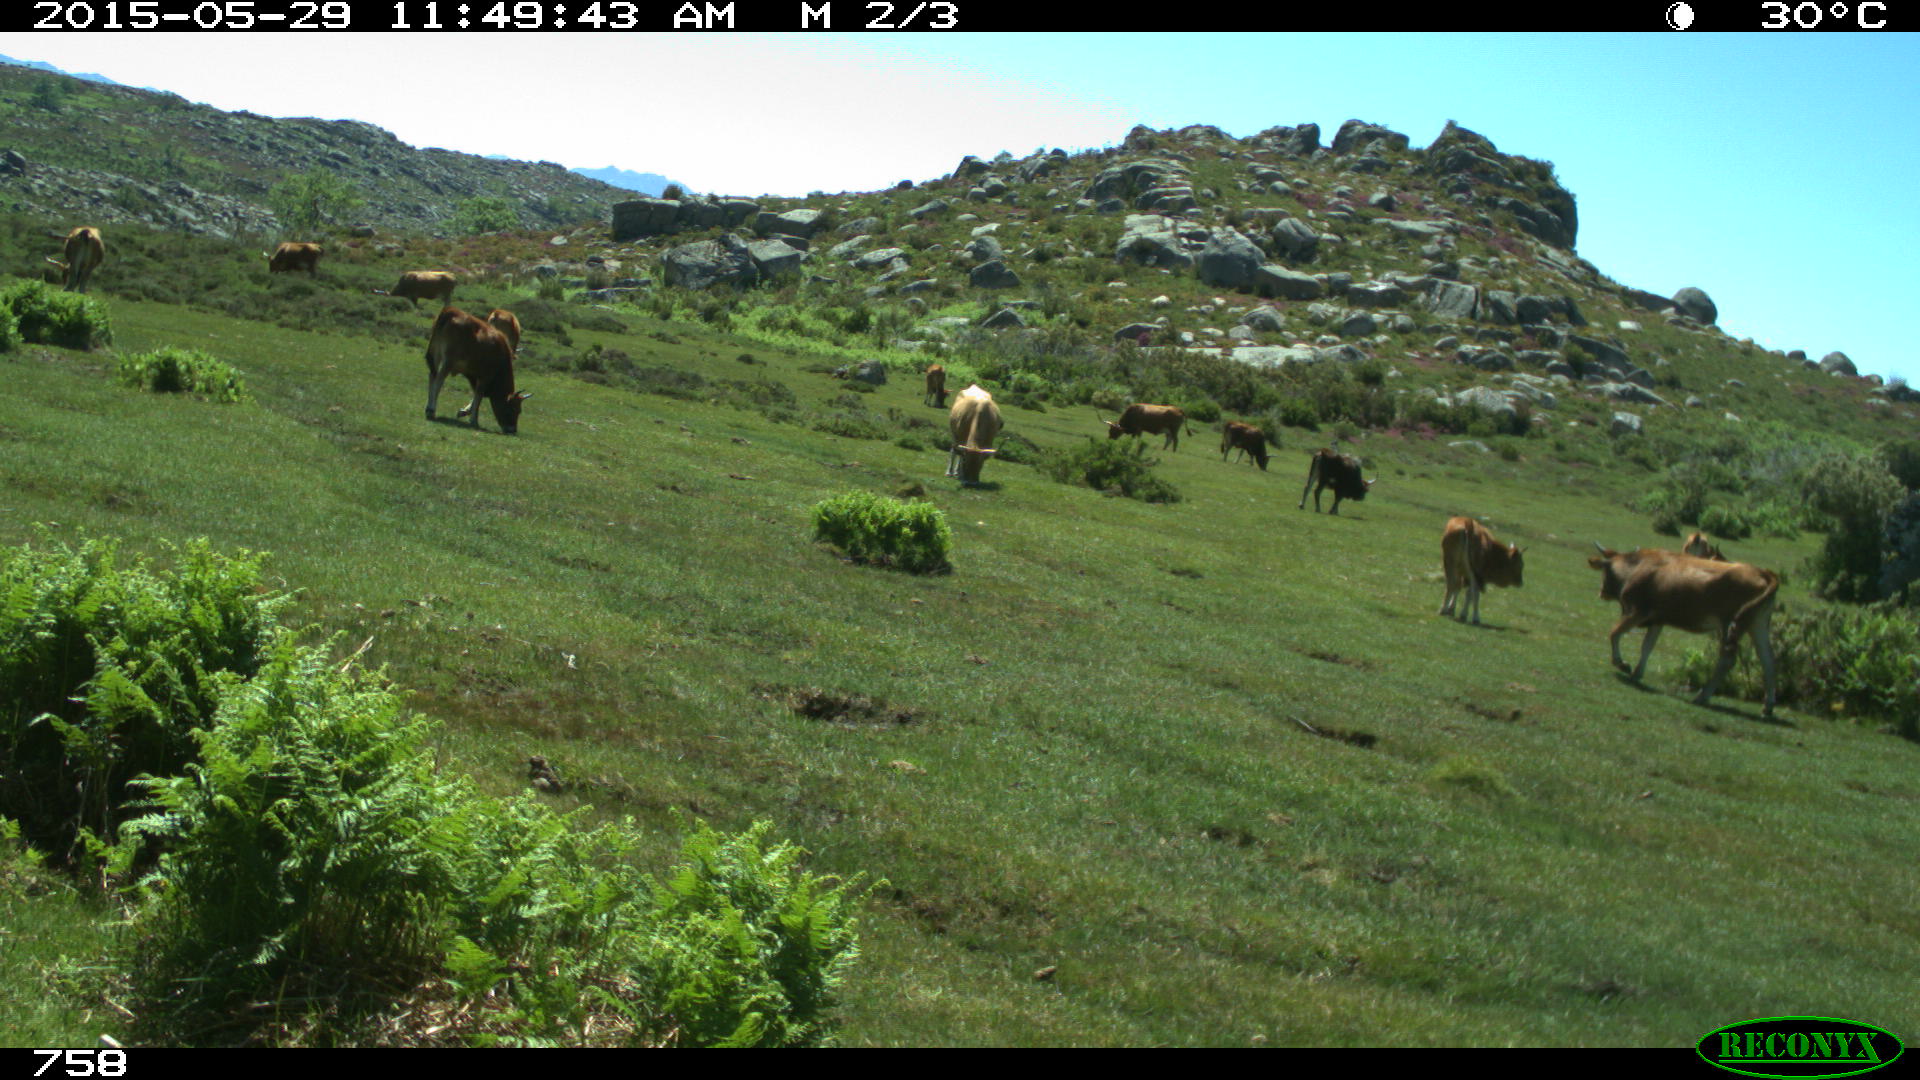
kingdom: Animalia
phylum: Chordata
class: Mammalia
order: Artiodactyla
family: Bovidae
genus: Bos
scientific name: Bos taurus
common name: Domesticated cattle
